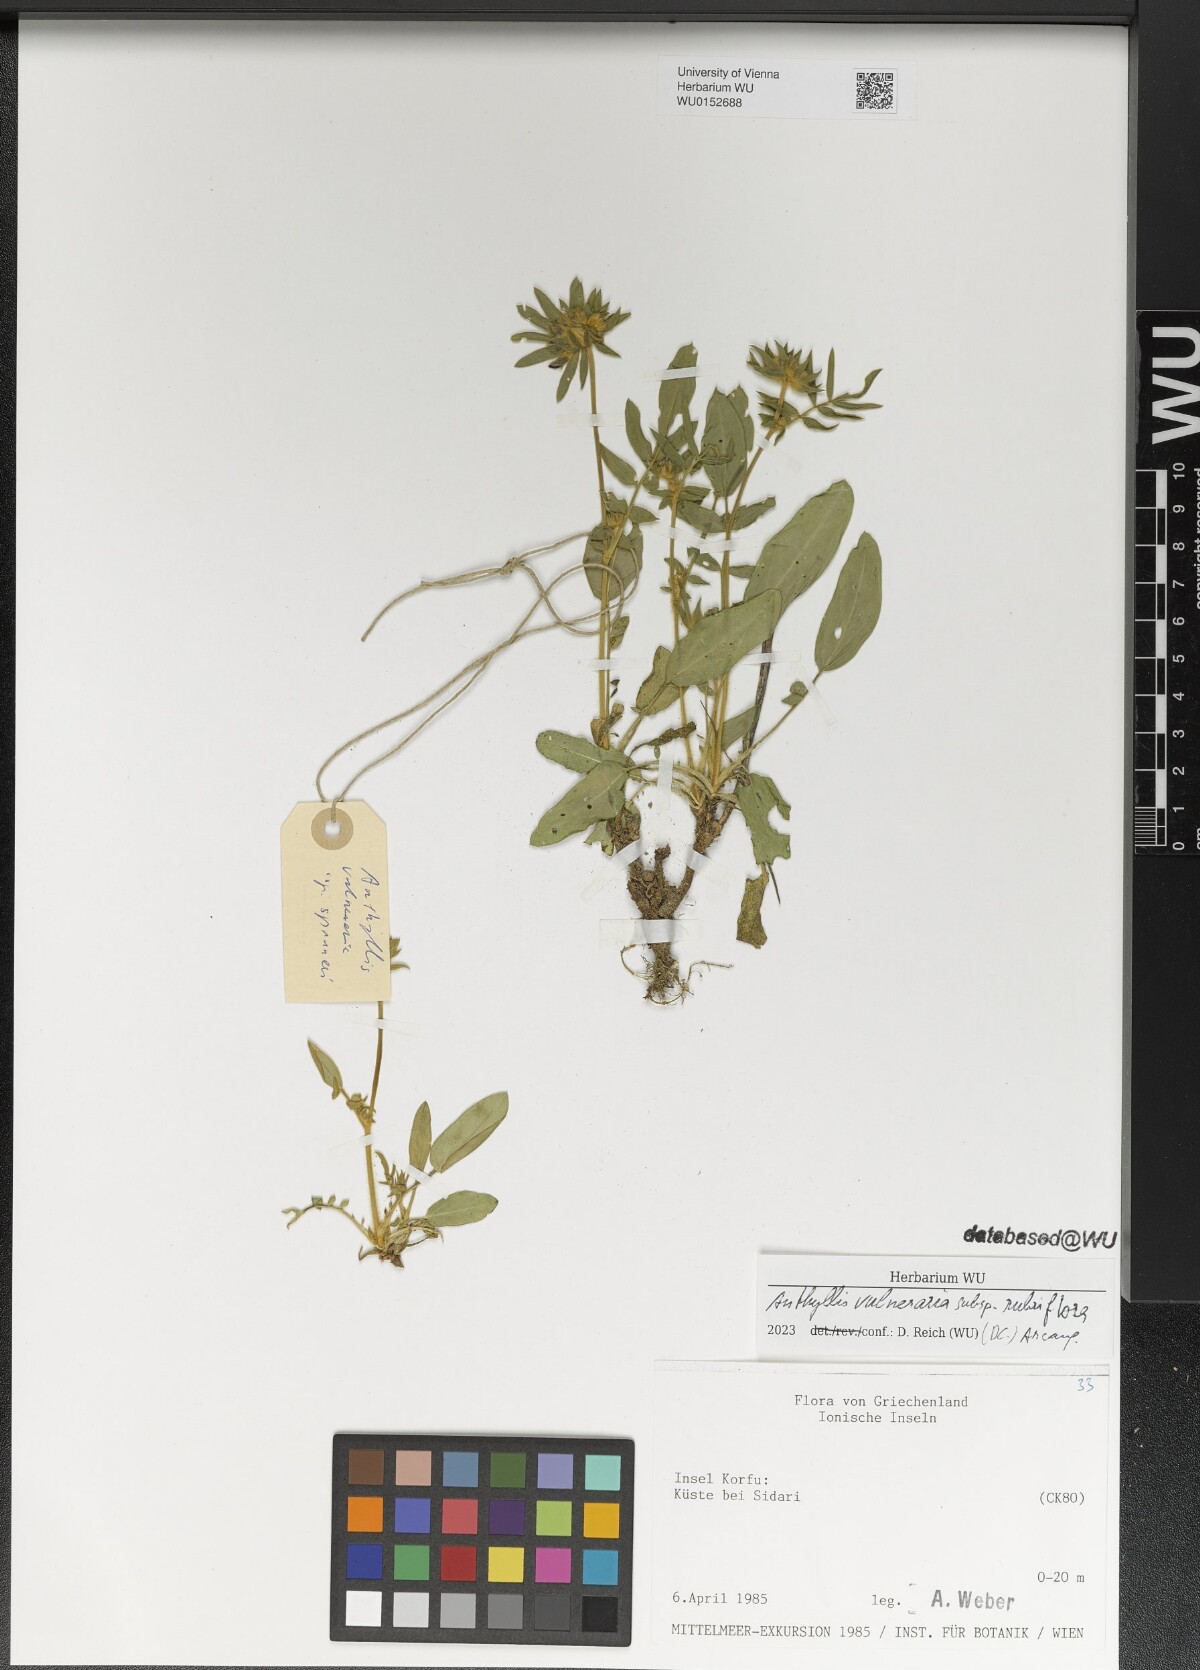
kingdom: Plantae
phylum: Tracheophyta
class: Magnoliopsida
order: Fabales
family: Fabaceae
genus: Anthyllis
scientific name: Anthyllis vulneraria
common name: Kidney vetch
